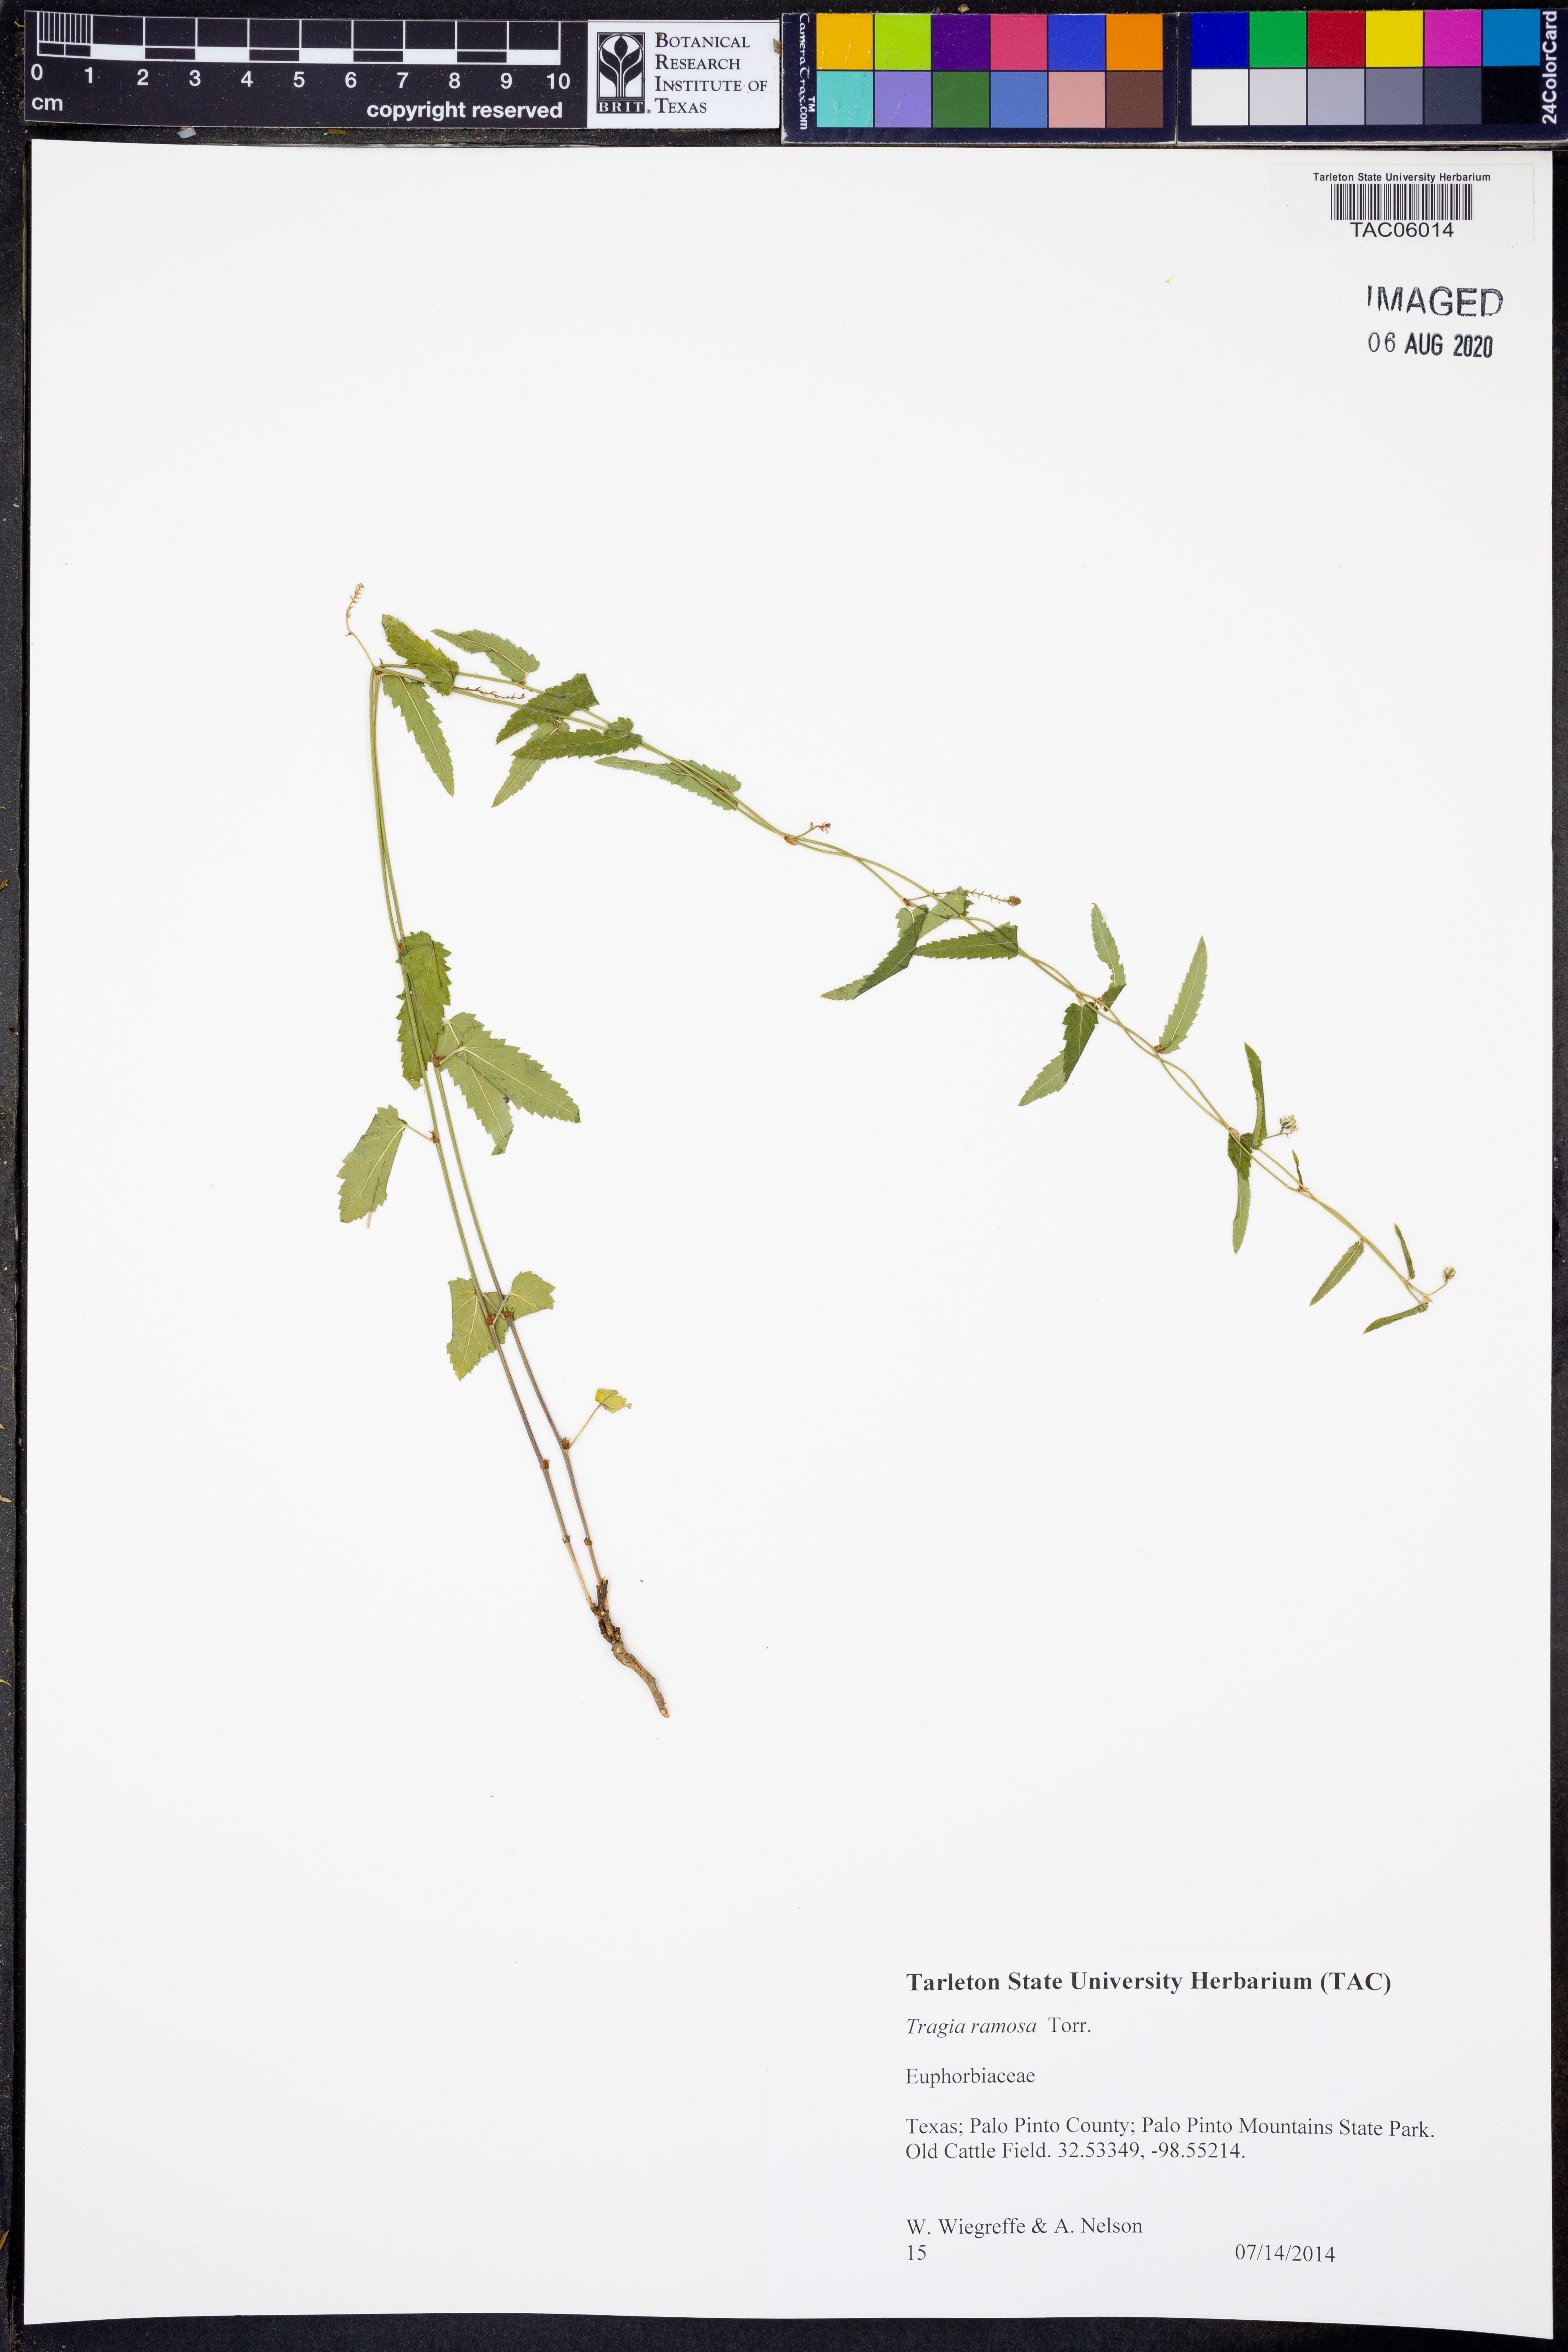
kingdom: Plantae
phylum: Tracheophyta
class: Magnoliopsida
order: Malpighiales
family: Euphorbiaceae
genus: Tragia
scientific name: Tragia ramosa
